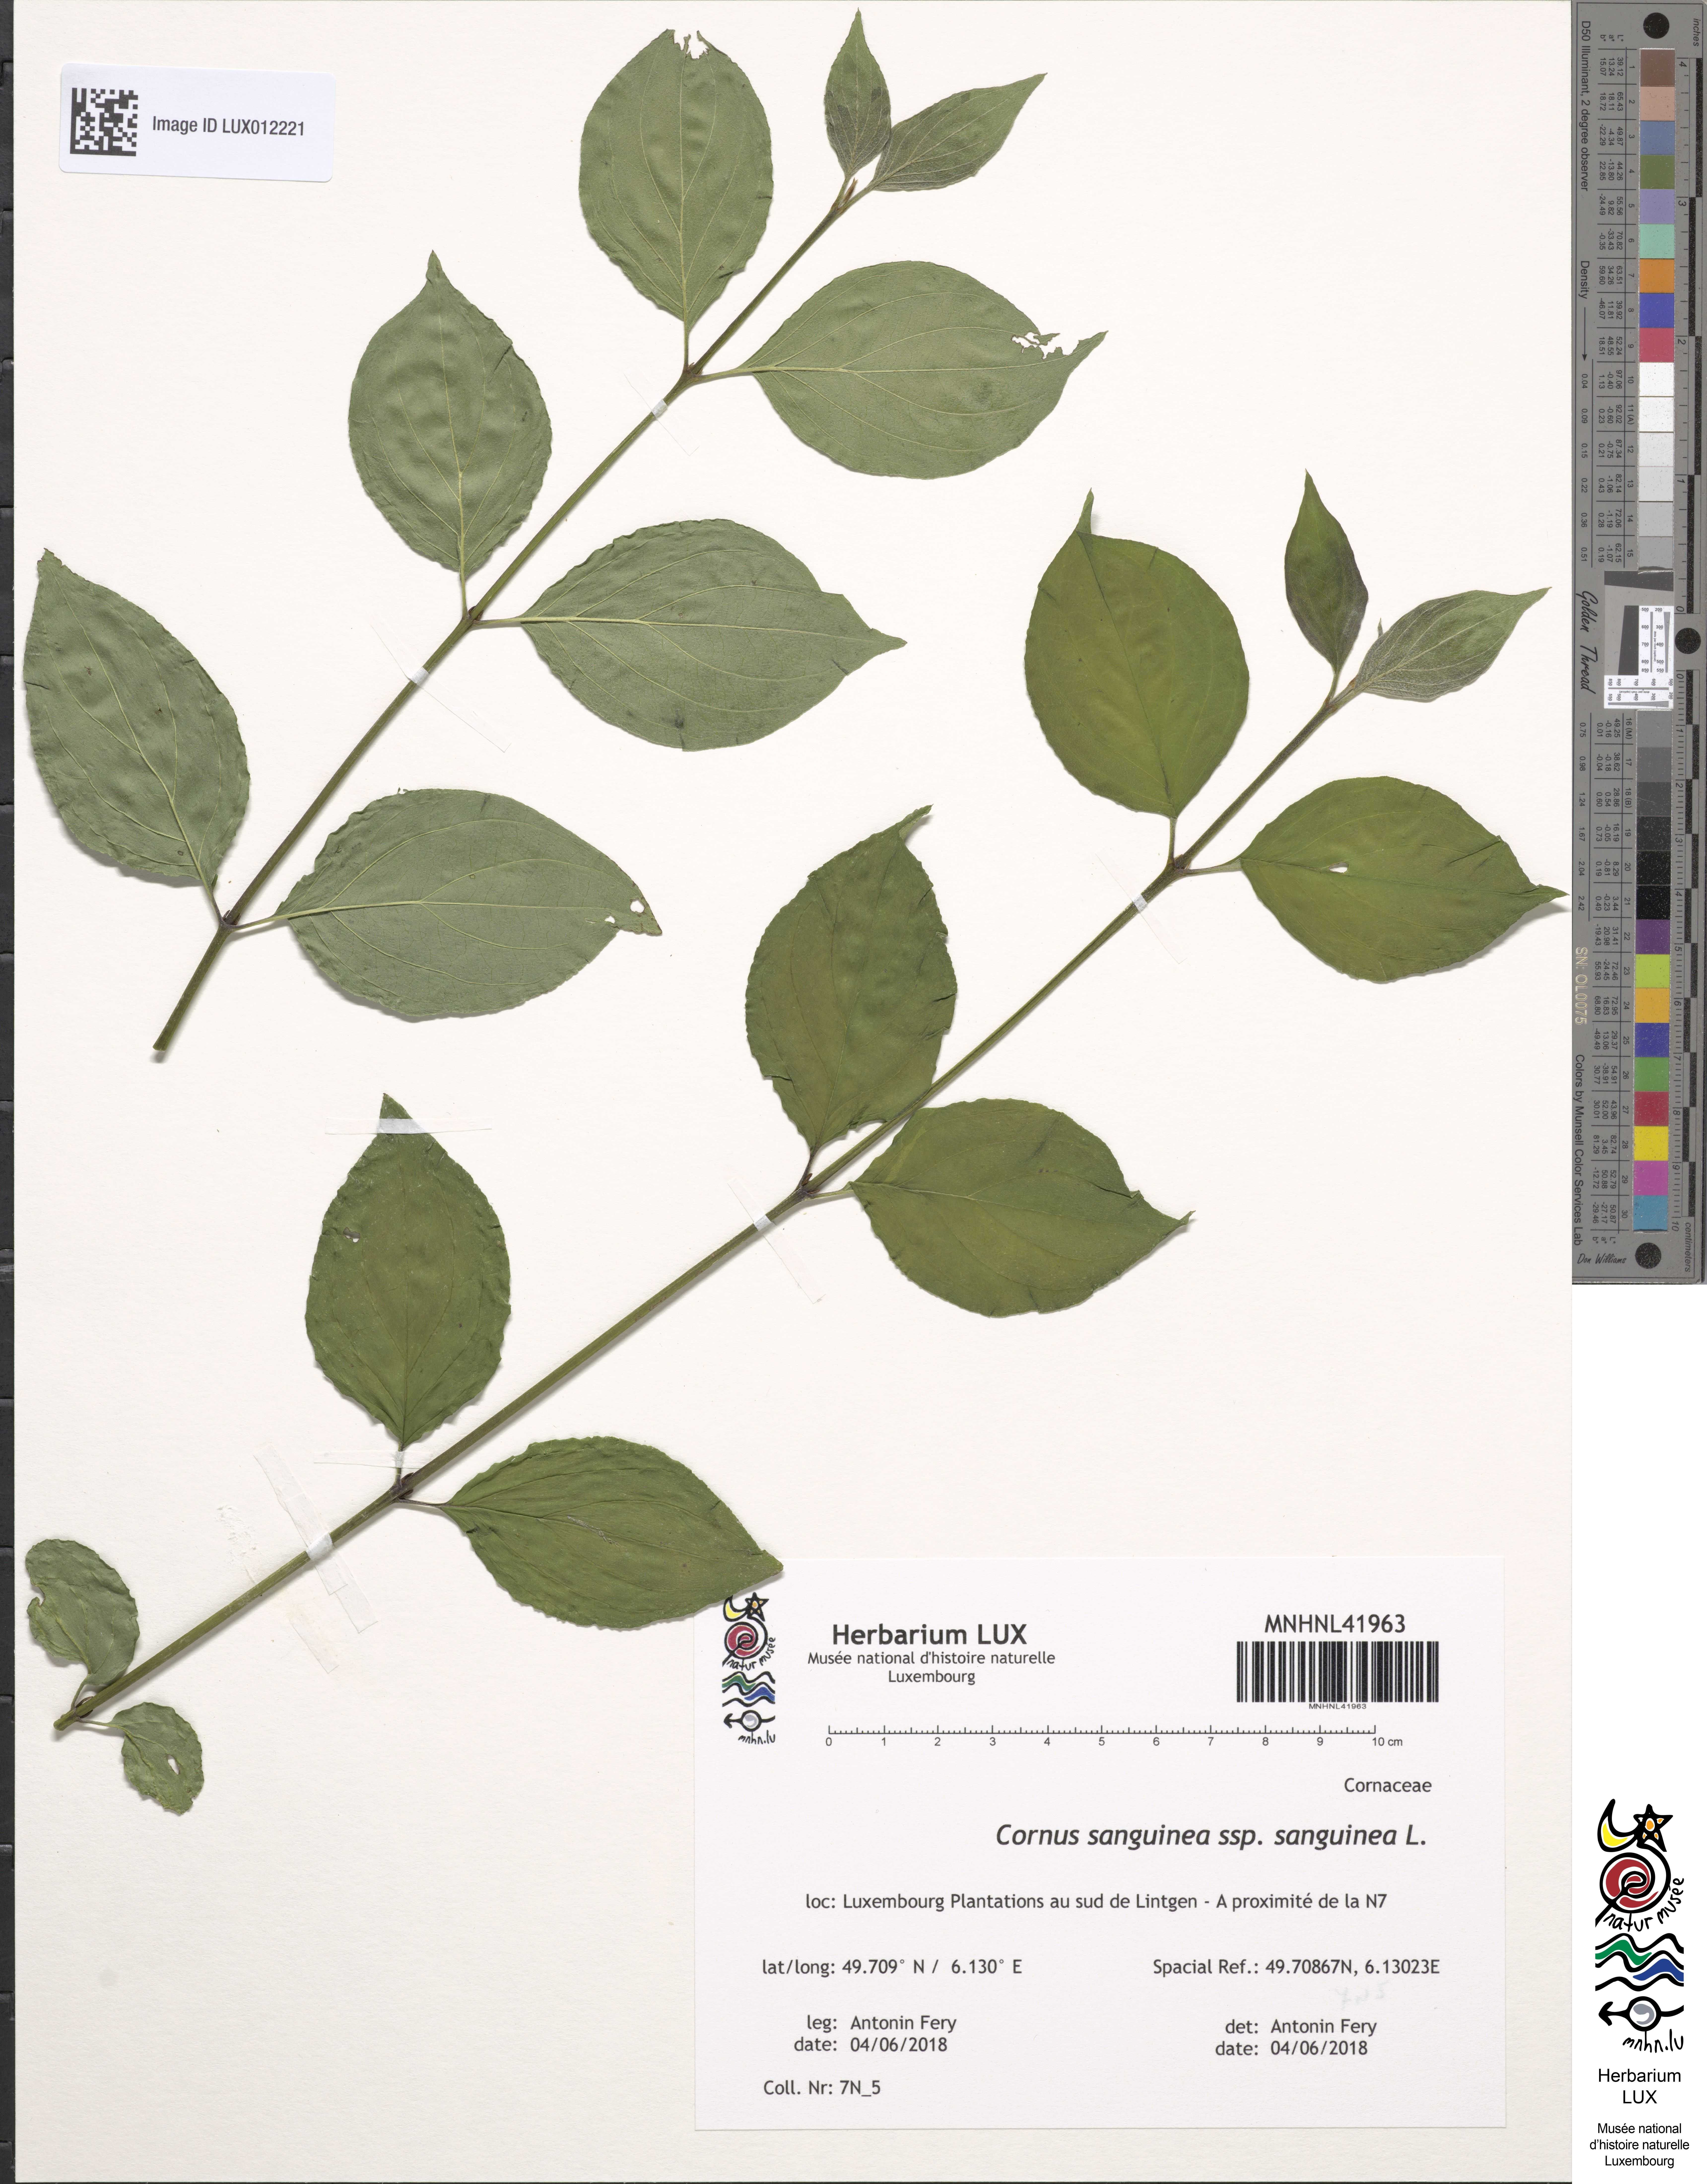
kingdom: Plantae
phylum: Tracheophyta
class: Magnoliopsida
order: Cornales
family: Cornaceae
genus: Cornus
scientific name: Cornus sanguinea
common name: Dogwood
